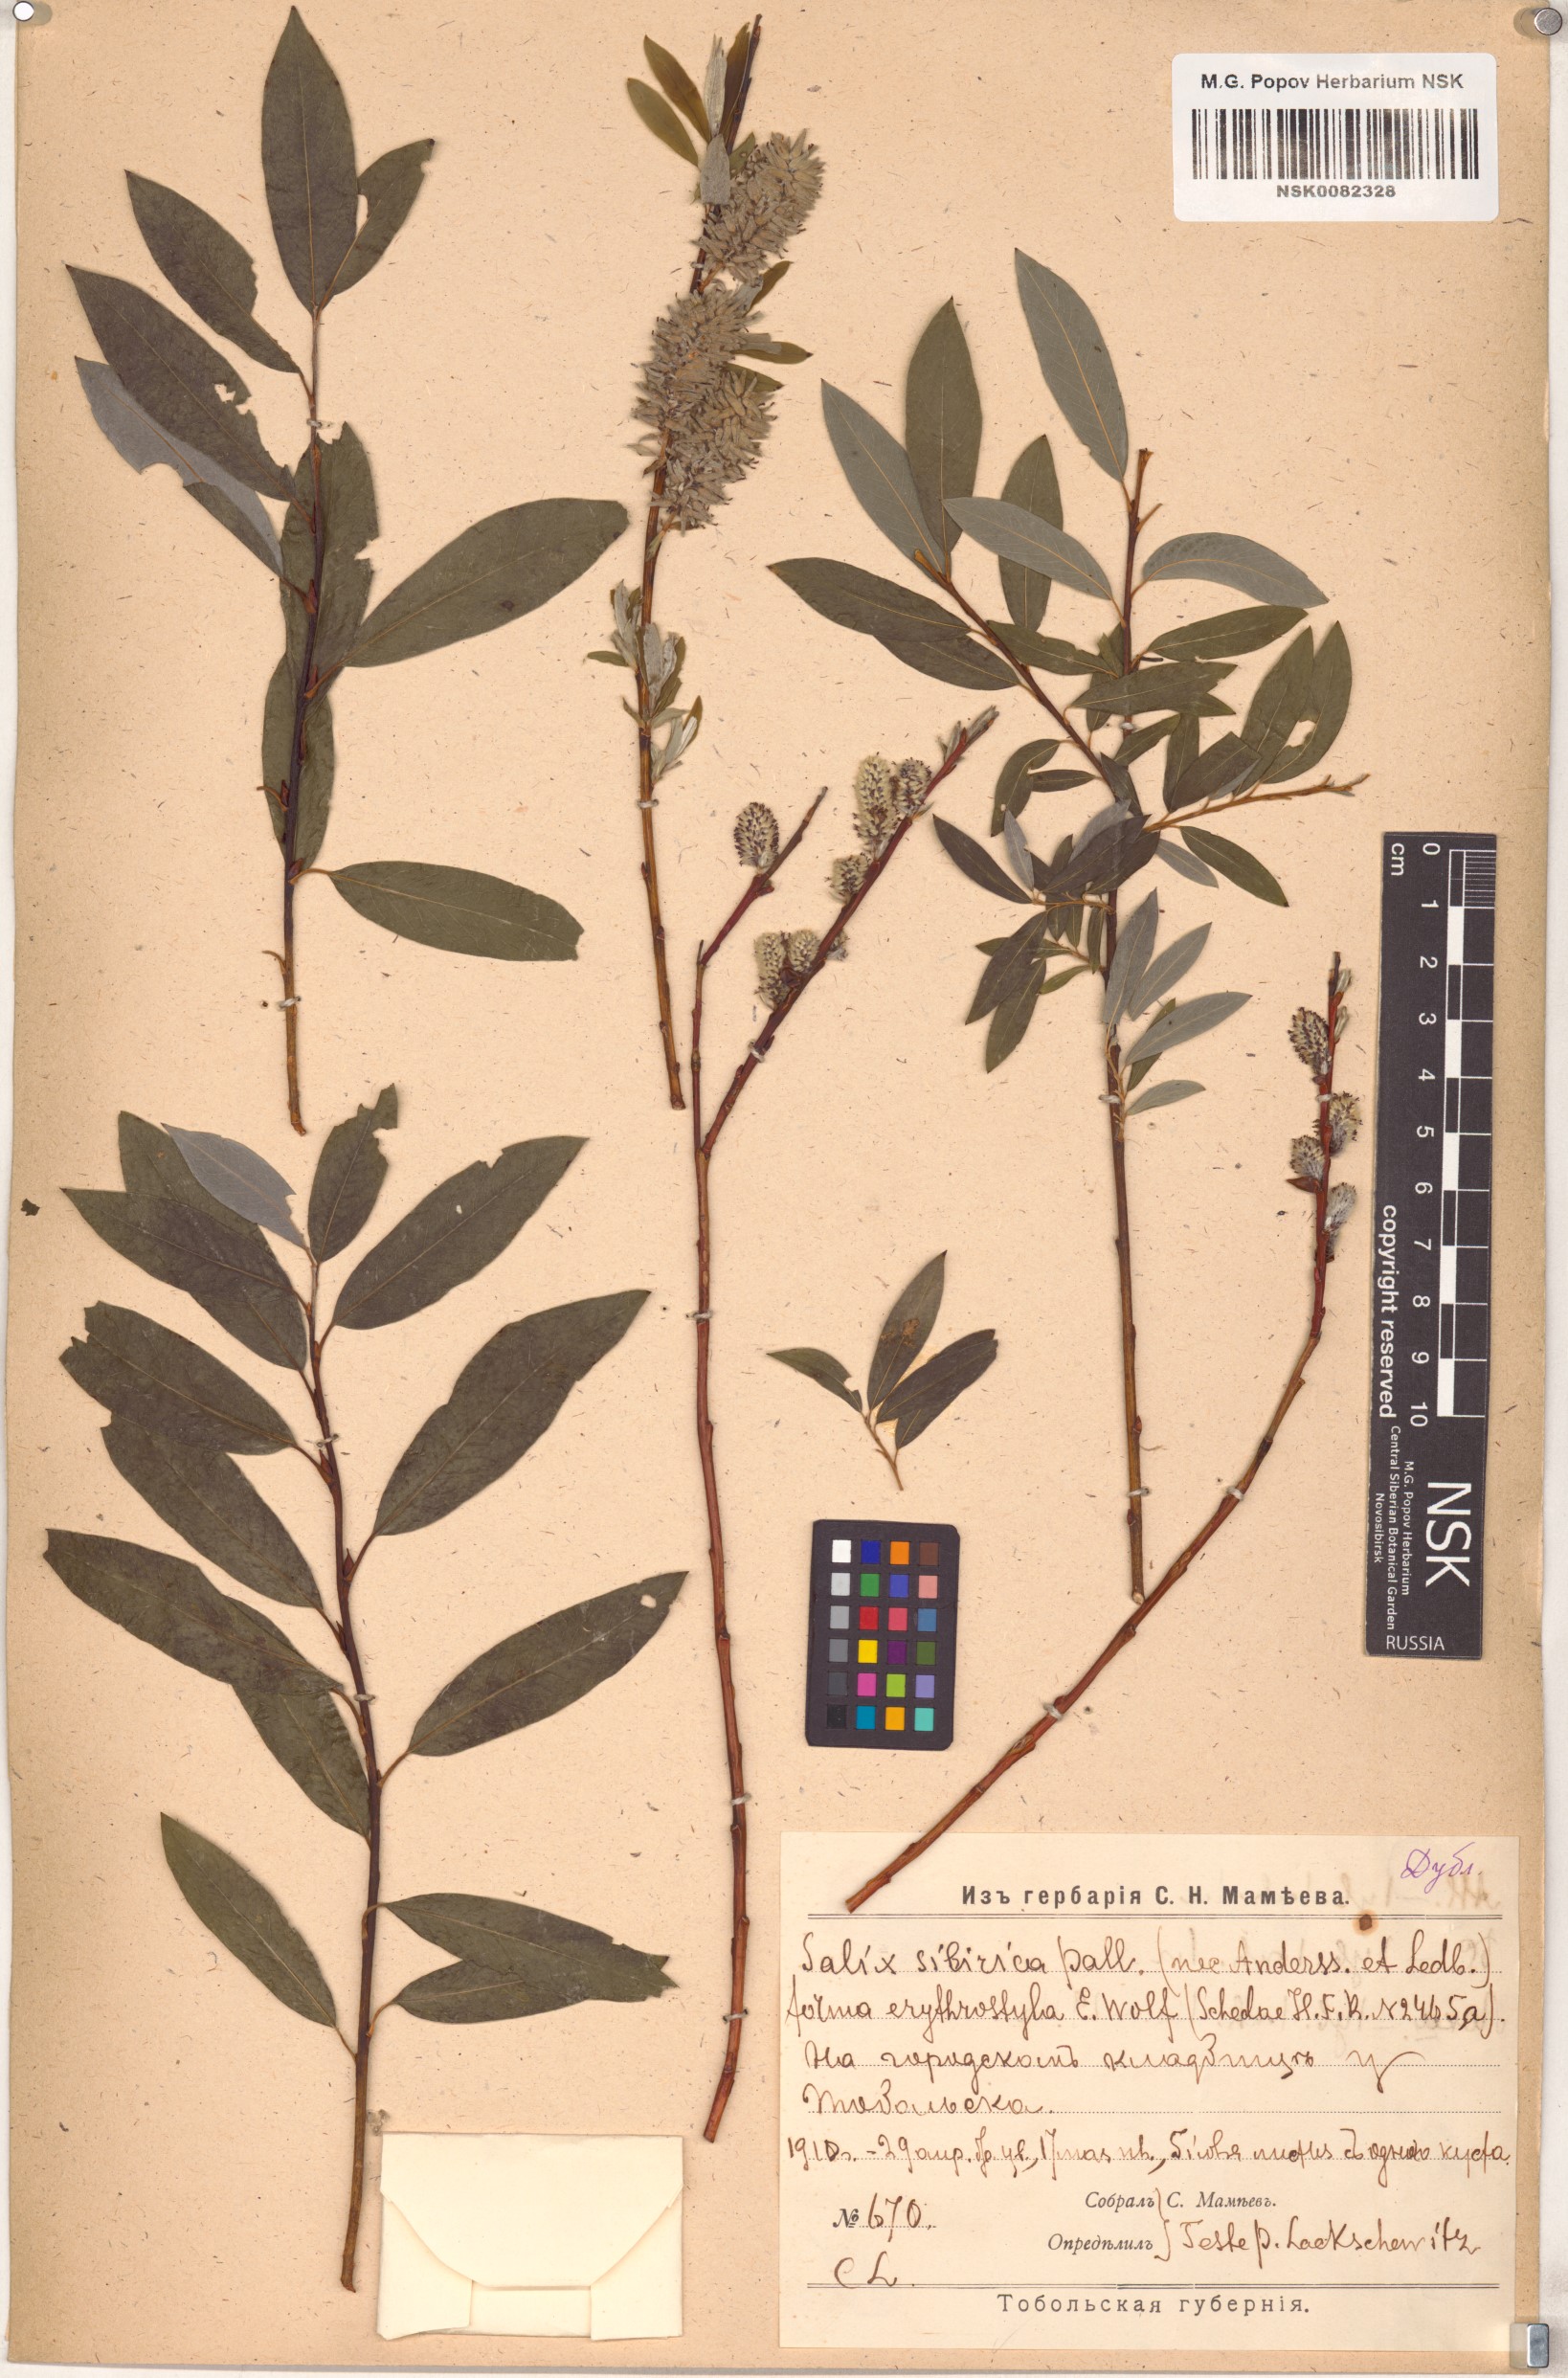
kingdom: Plantae
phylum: Tracheophyta
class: Magnoliopsida
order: Malpighiales
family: Salicaceae
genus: Salix
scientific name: Salix rosmarinifolia
